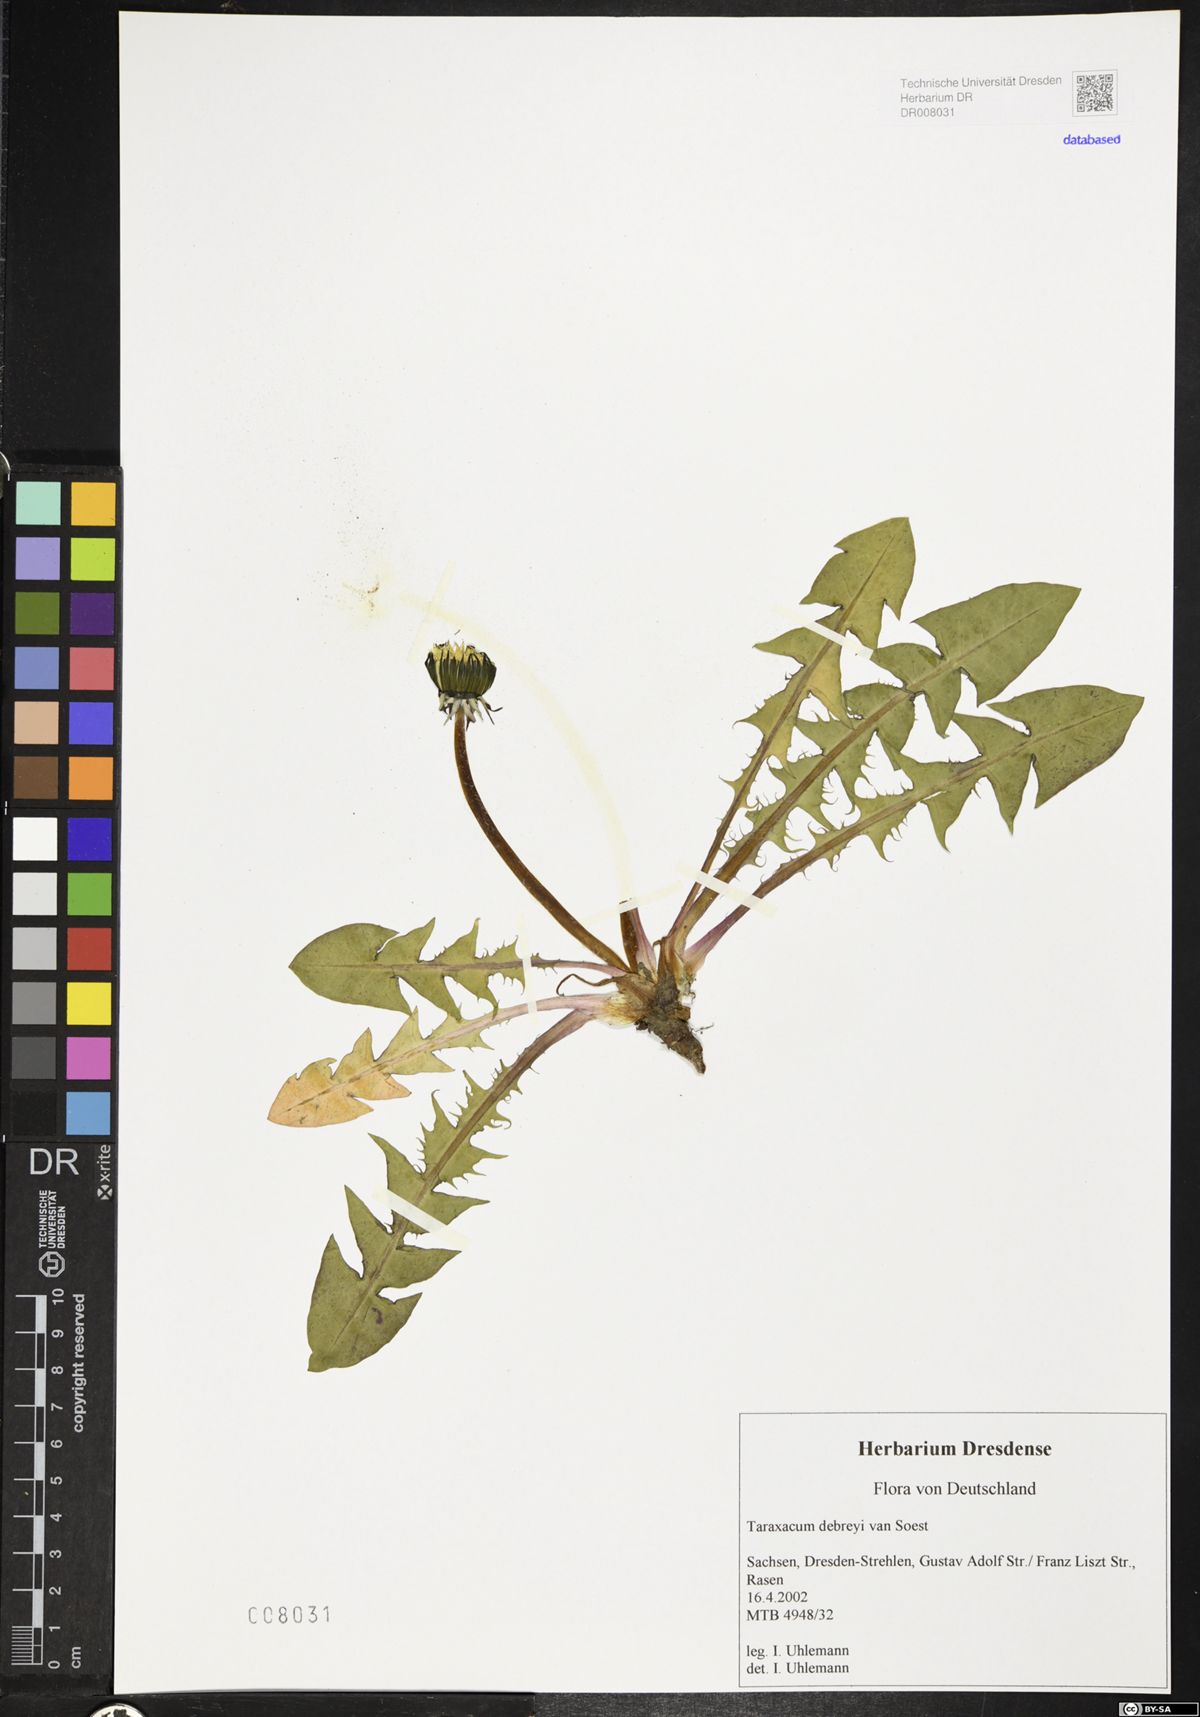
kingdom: Plantae
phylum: Tracheophyta
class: Magnoliopsida
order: Asterales
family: Asteraceae
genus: Taraxacum
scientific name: Taraxacum debrayi
